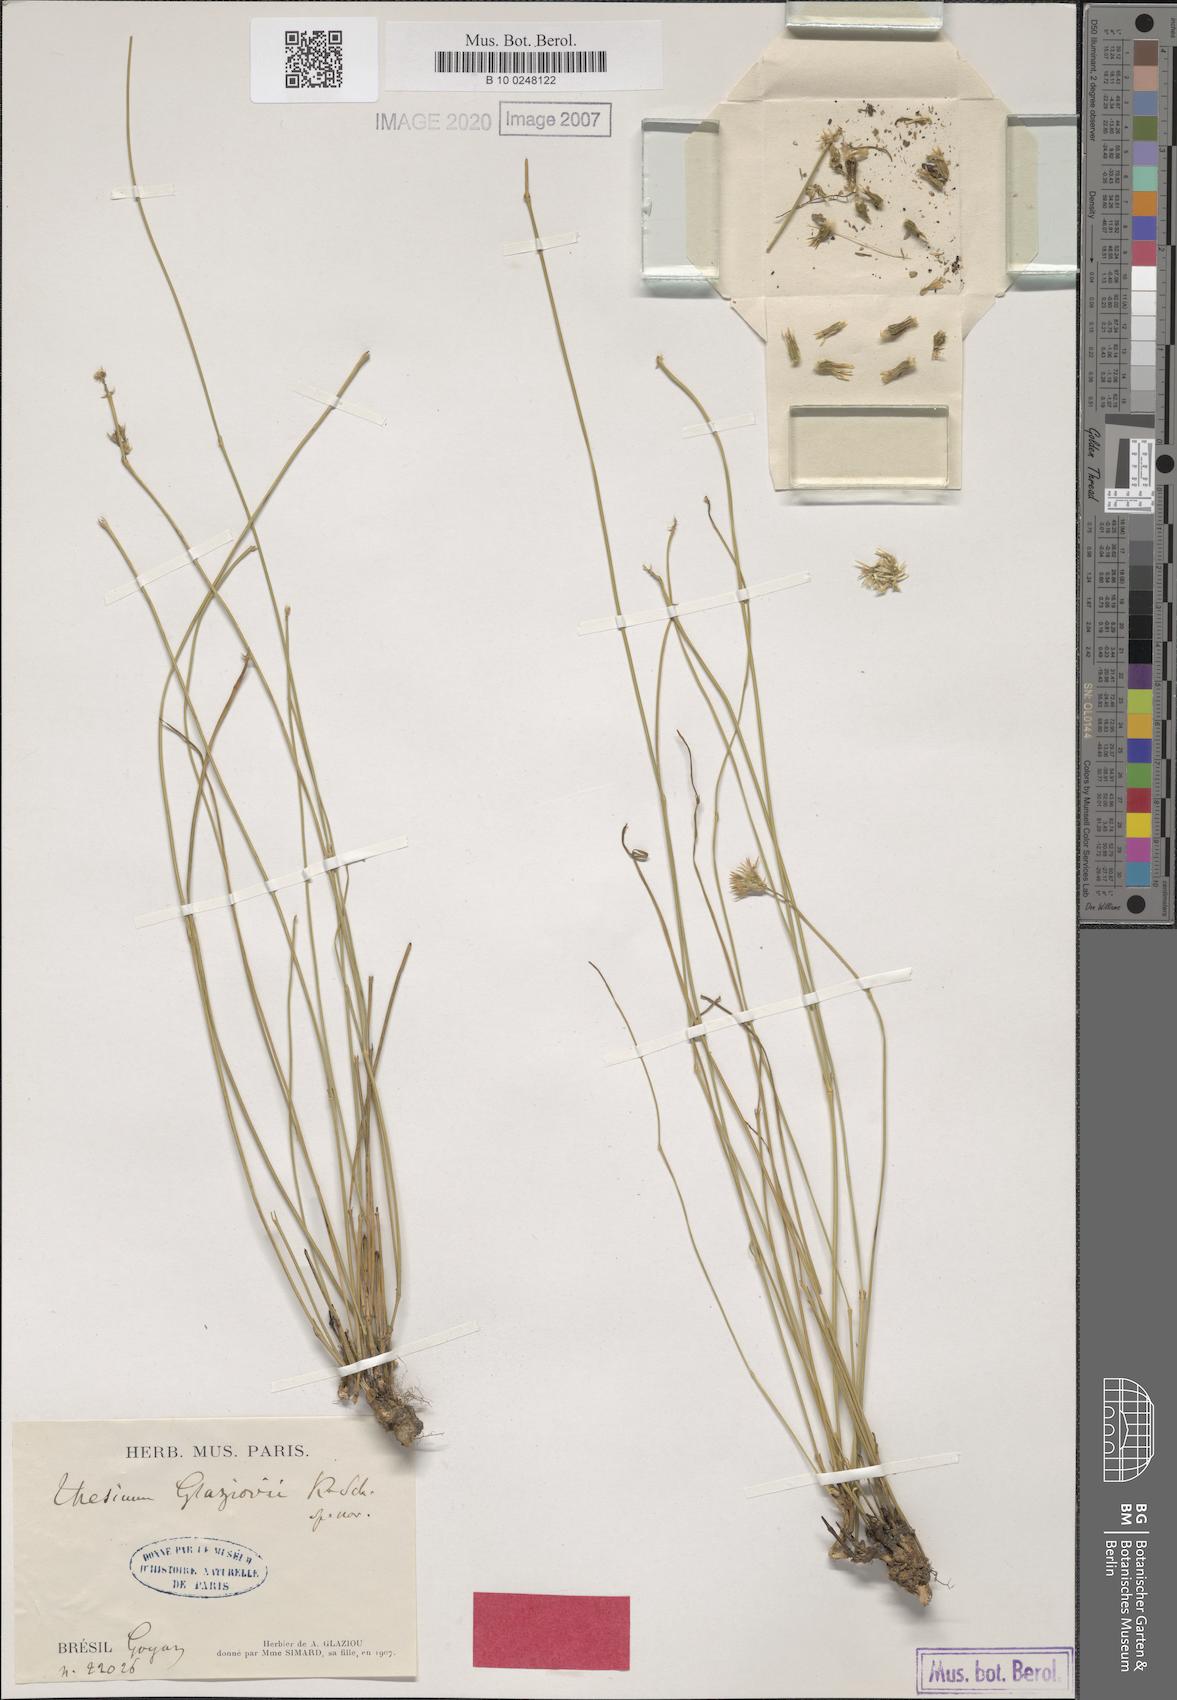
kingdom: Plantae
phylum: Tracheophyta
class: Magnoliopsida
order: Santalales
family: Thesiaceae
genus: Thesium
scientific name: Thesium glaziovii
